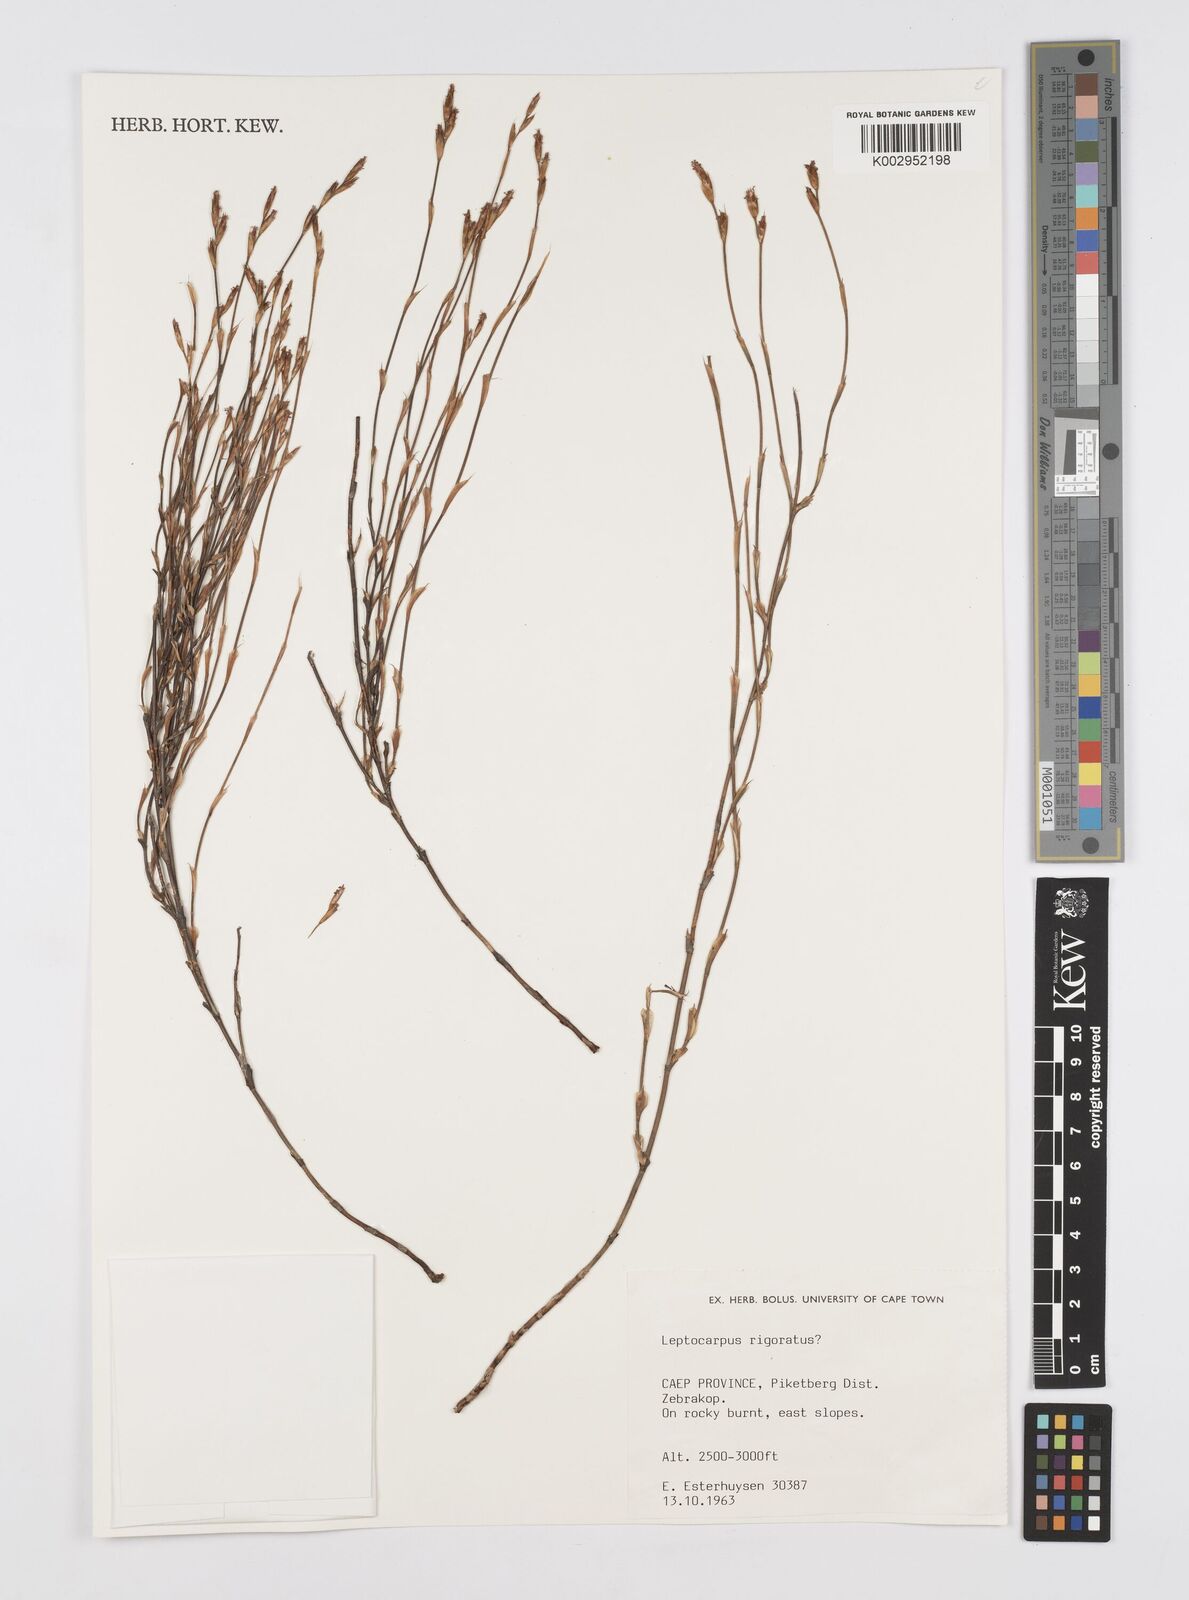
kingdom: Plantae
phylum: Tracheophyta
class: Liliopsida
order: Poales
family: Restionaceae
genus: Restio
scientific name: Restio rigoratus
